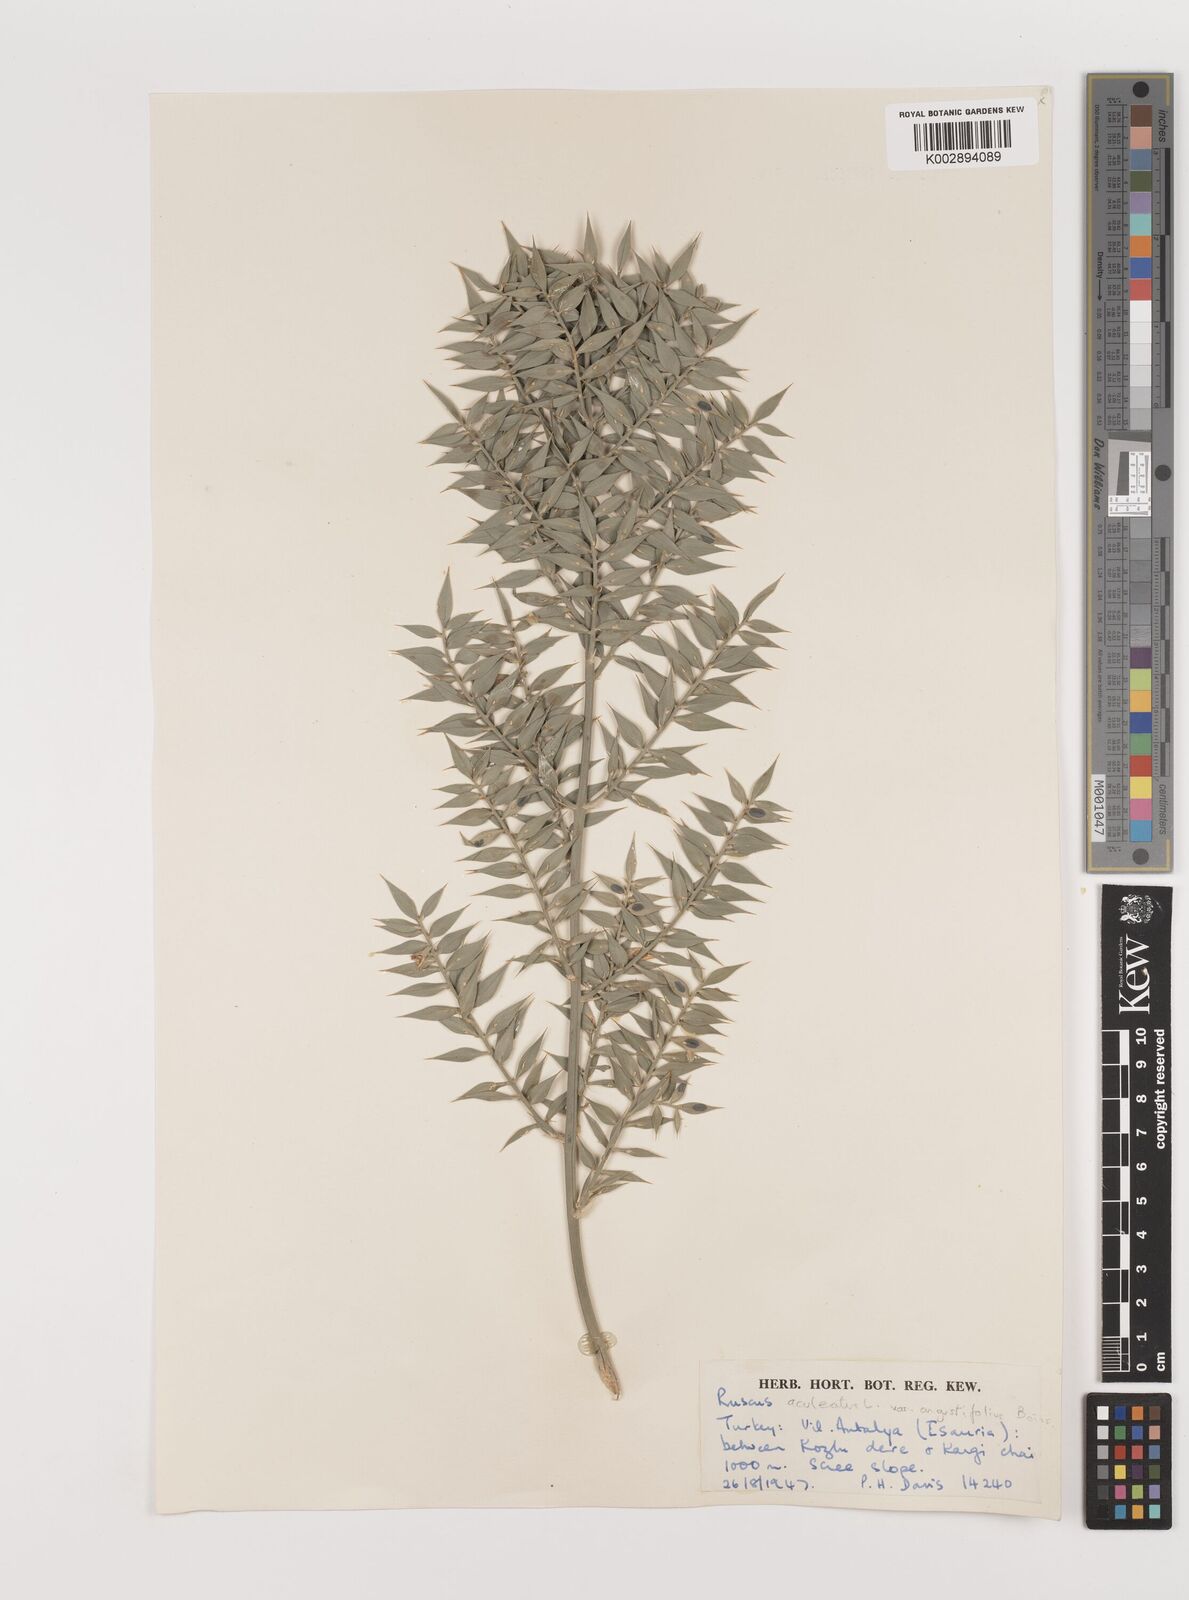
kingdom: Plantae
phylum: Tracheophyta
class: Liliopsida
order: Asparagales
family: Asparagaceae
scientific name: Asparagaceae
